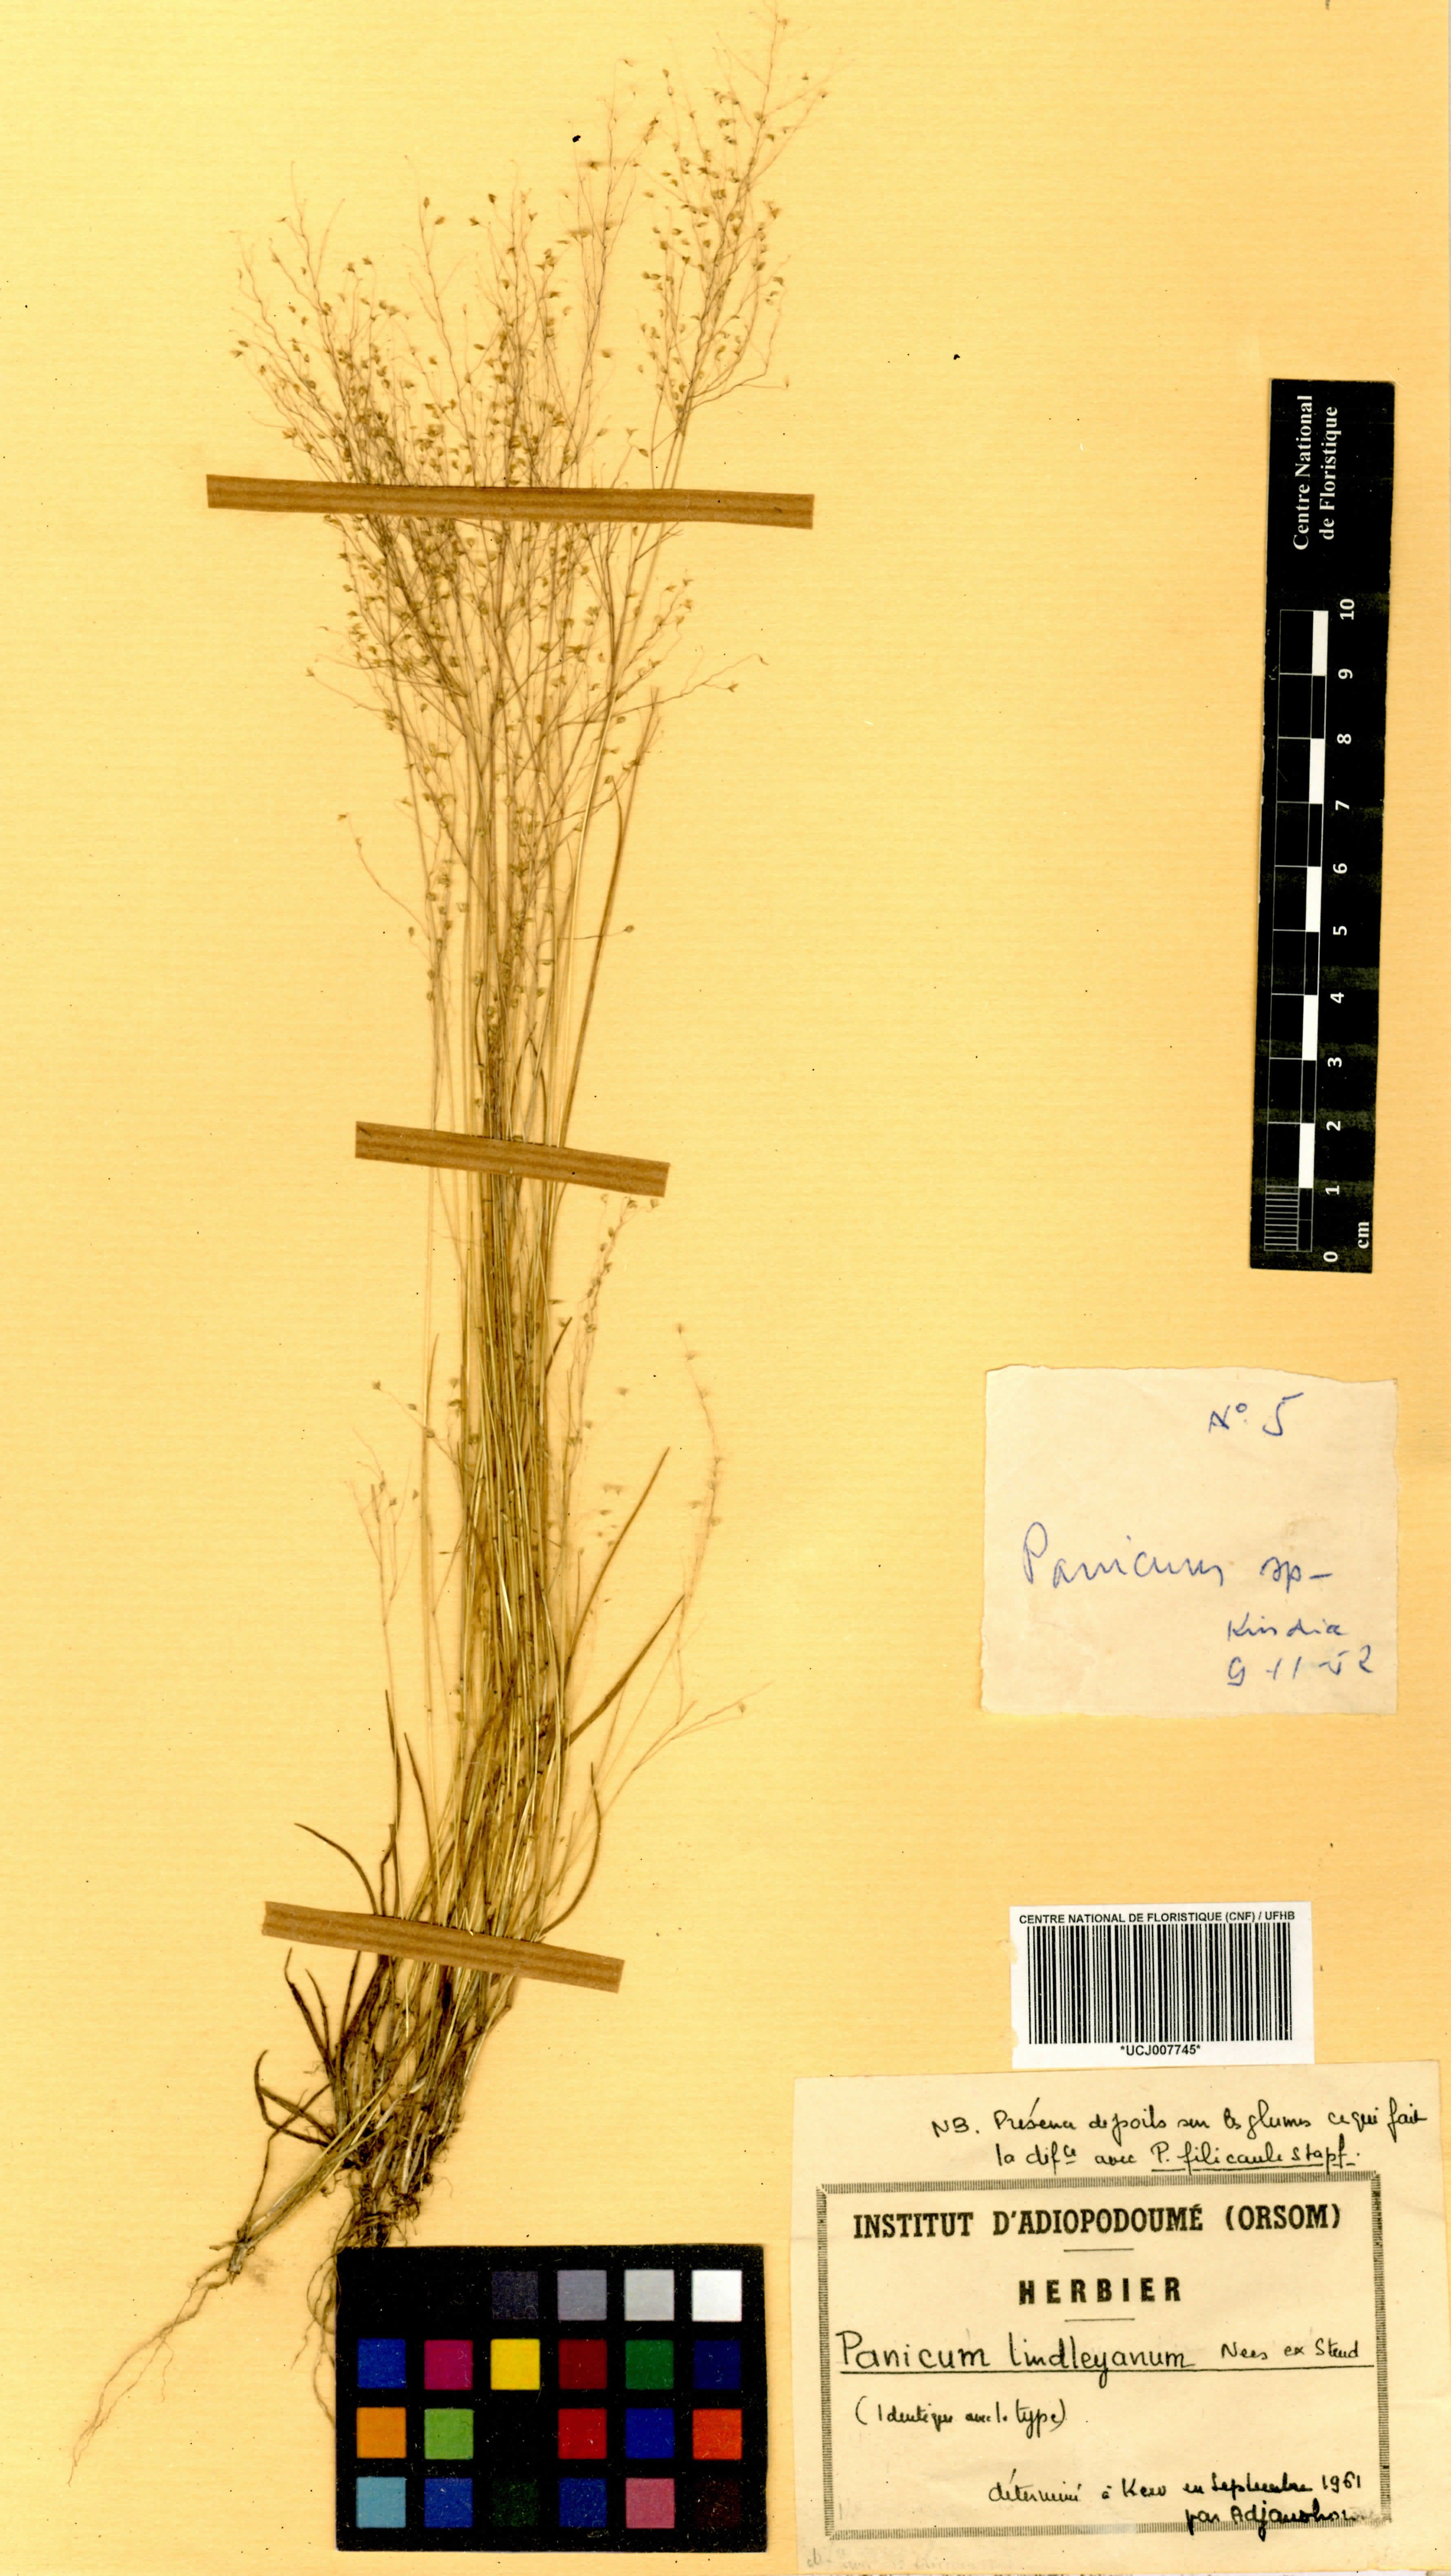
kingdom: Plantae
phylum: Tracheophyta
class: Liliopsida
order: Poales
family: Poaceae
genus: Trichanthecium
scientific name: Trichanthecium tenellum
